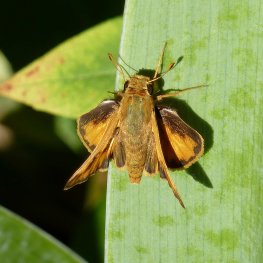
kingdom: Animalia
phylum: Arthropoda
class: Insecta
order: Lepidoptera
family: Hesperiidae
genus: Hylephila
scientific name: Hylephila phyleus
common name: Fiery Skipper
